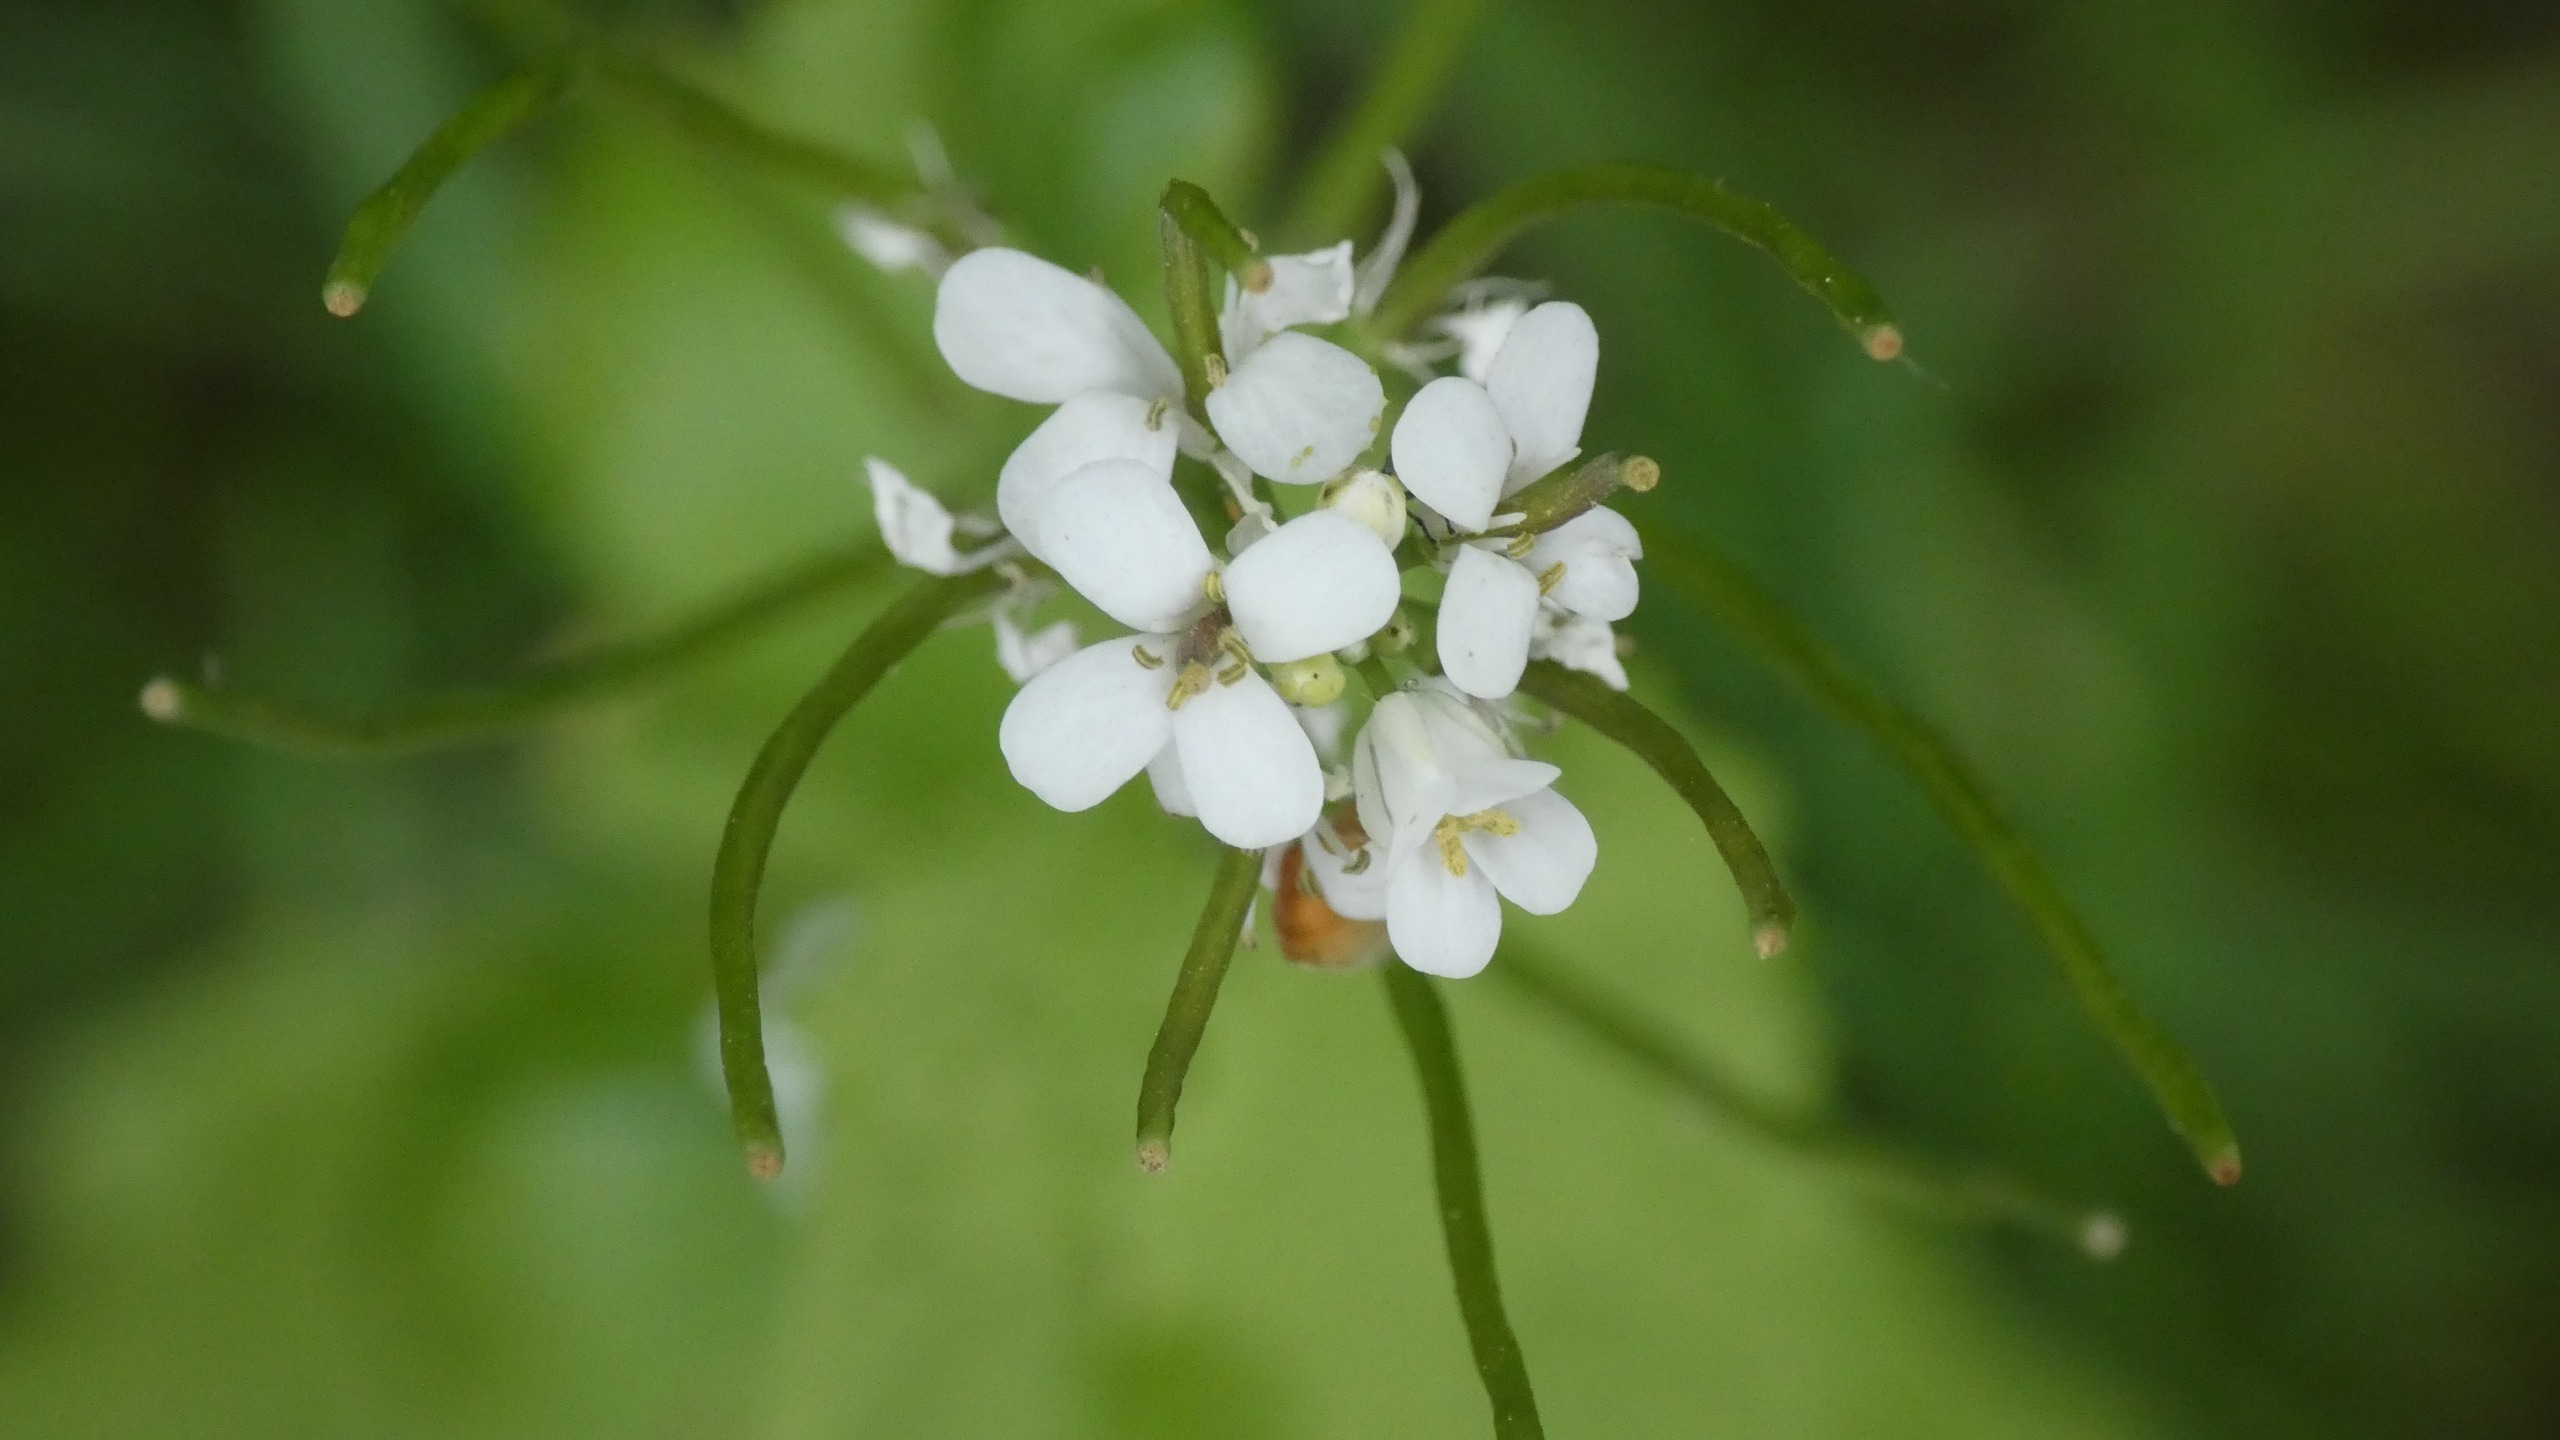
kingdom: Plantae
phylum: Tracheophyta
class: Magnoliopsida
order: Brassicales
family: Brassicaceae
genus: Alliaria
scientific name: Alliaria petiolata
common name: Løgkarse
